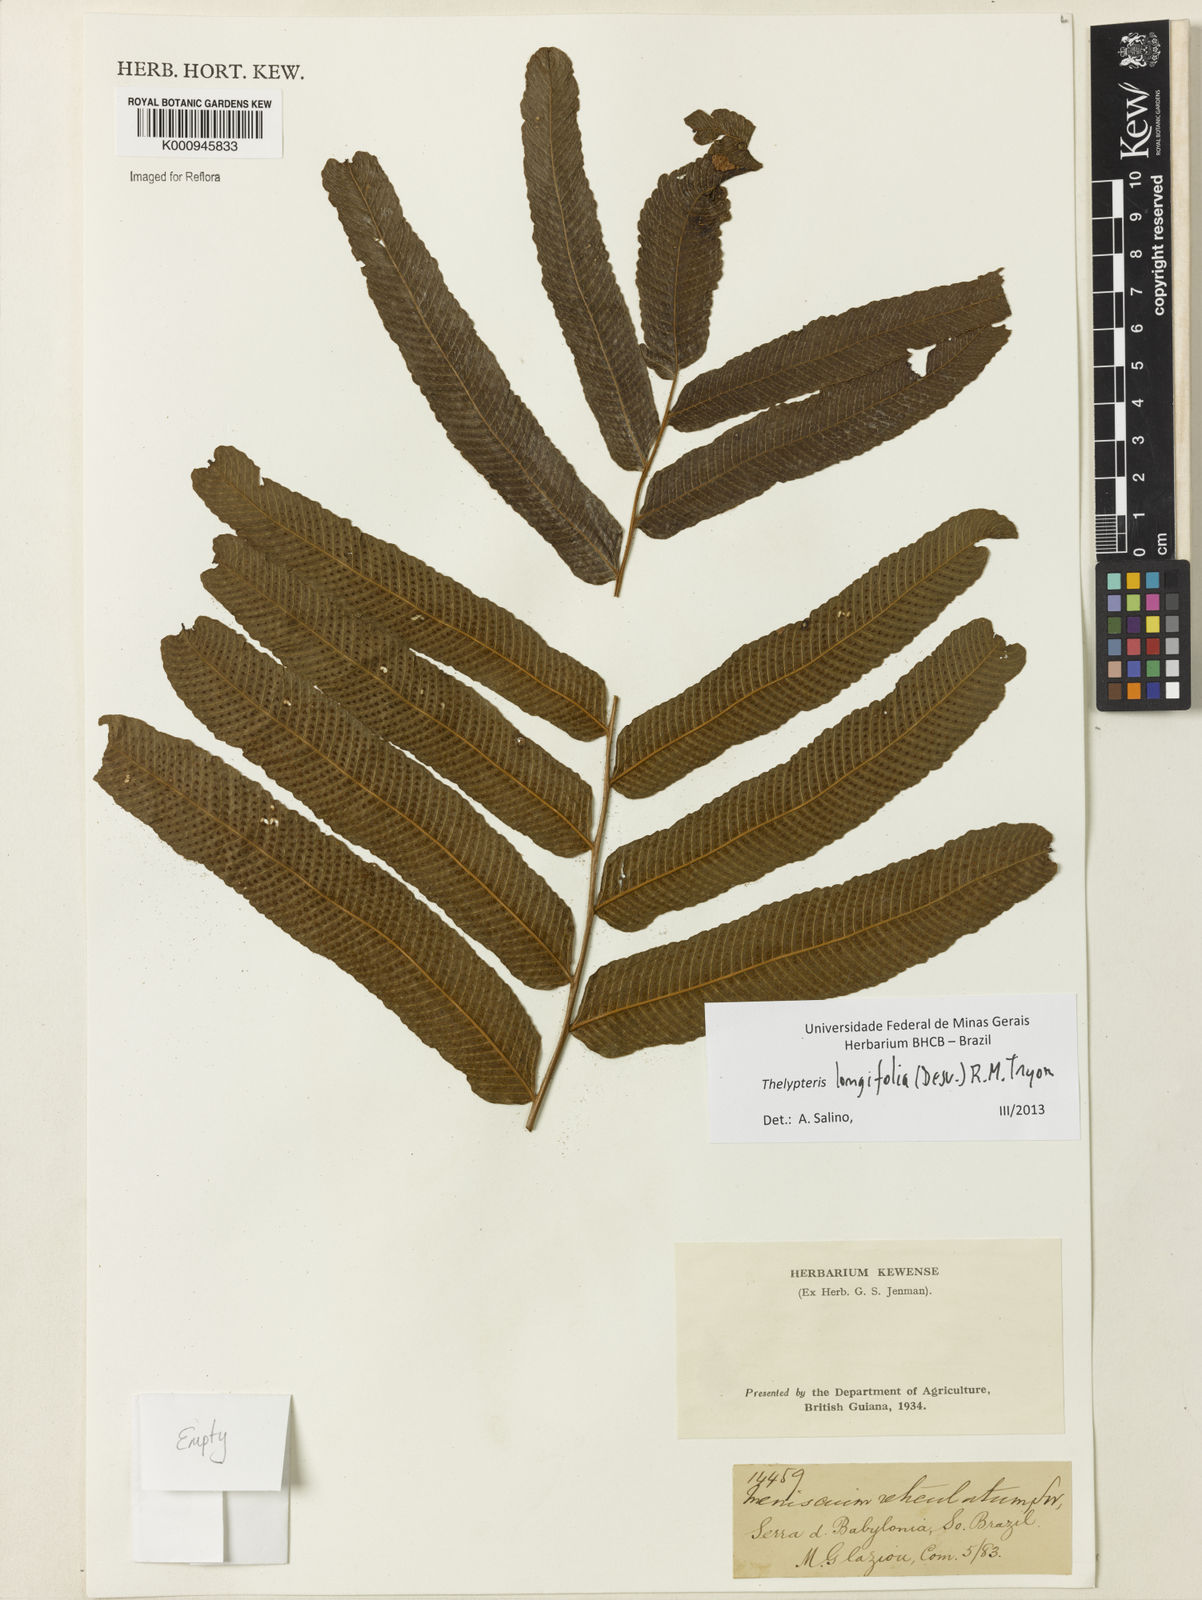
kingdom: Plantae
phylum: Tracheophyta
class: Polypodiopsida
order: Polypodiales
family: Thelypteridaceae
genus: Meniscium
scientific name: Meniscium longifolium
